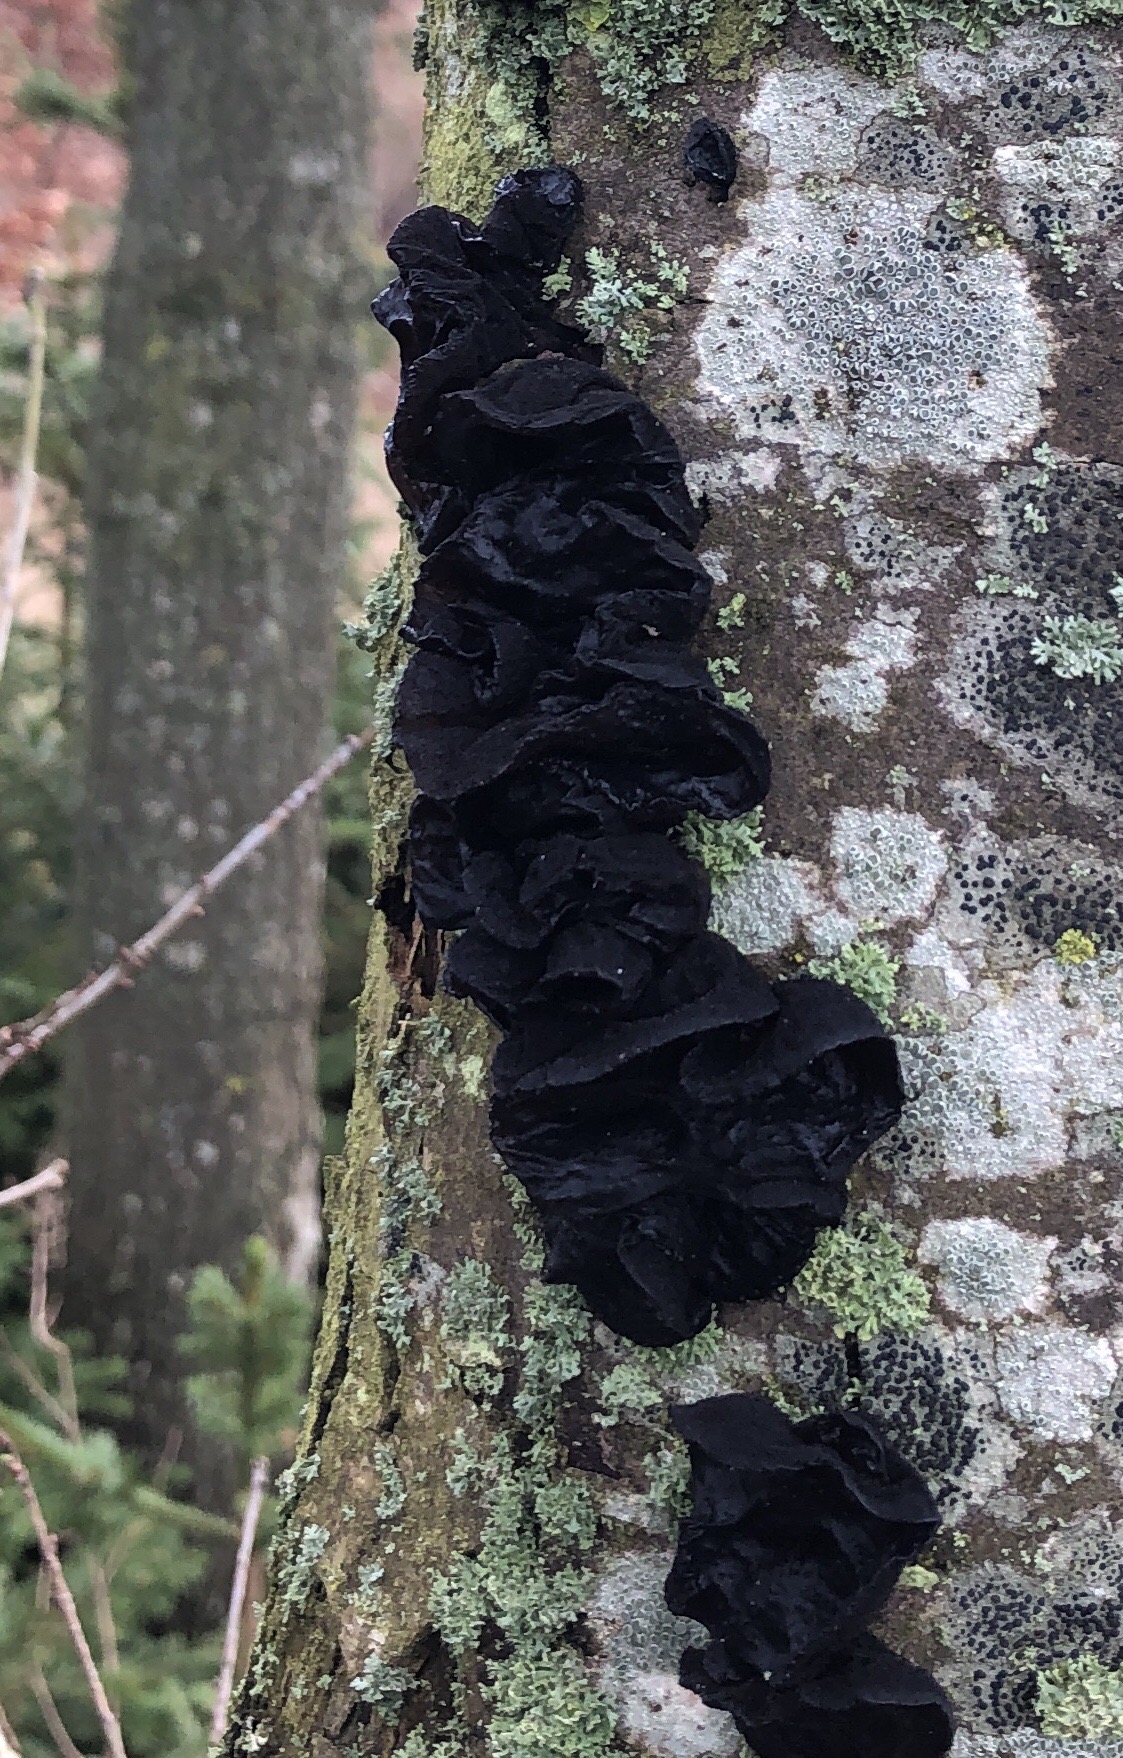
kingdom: Fungi
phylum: Basidiomycota
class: Agaricomycetes
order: Auriculariales
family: Auriculariaceae
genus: Exidia
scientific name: Exidia glandulosa
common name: ege-bævretop
